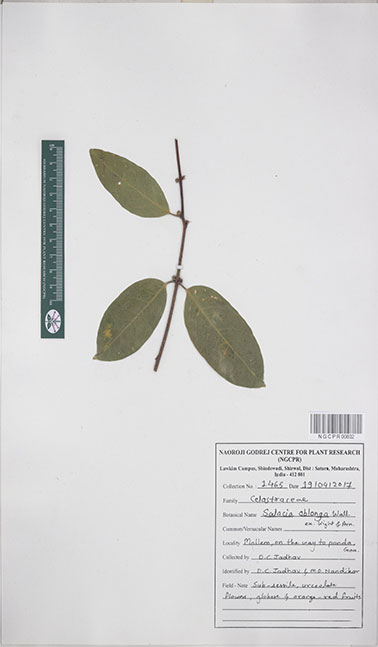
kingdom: Plantae
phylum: Tracheophyta
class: Magnoliopsida
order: Celastrales
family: Celastraceae
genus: Salacia
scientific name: Salacia oblonga
